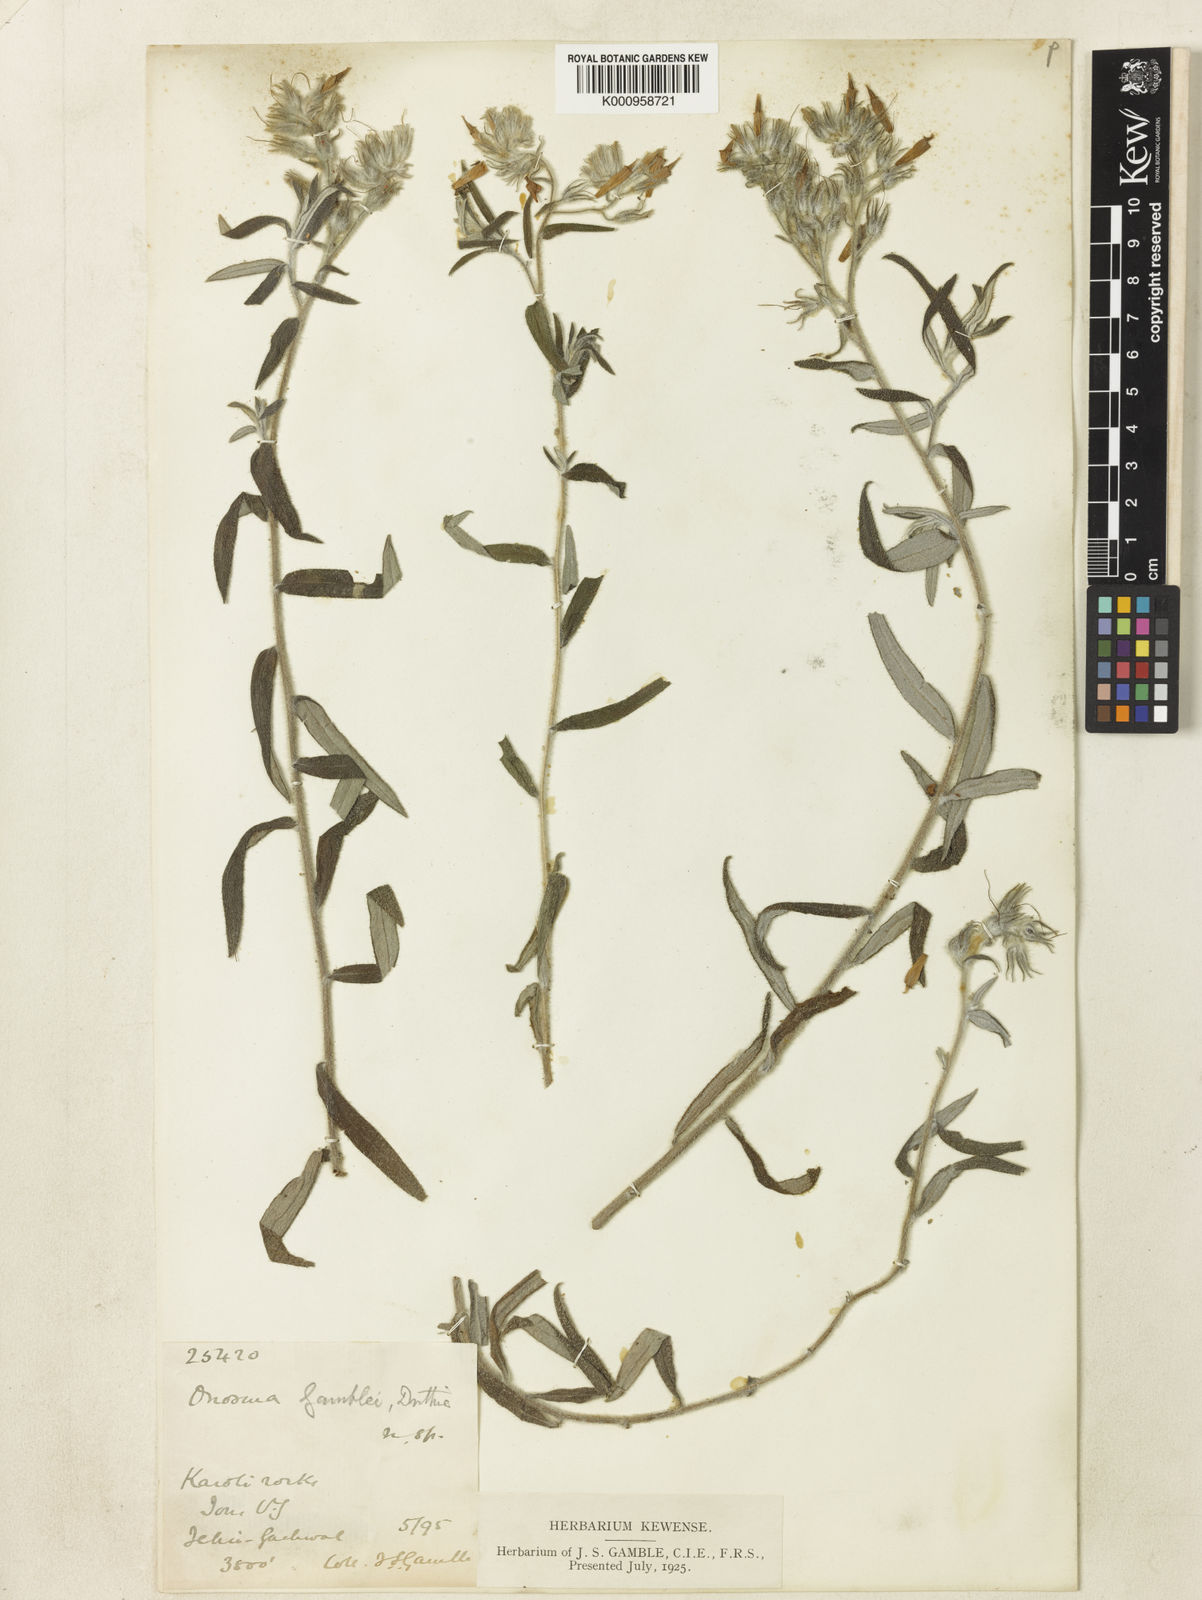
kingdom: Plantae
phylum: Tracheophyta
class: Magnoliopsida
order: Boraginales
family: Boraginaceae
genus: Maharanga
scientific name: Maharanga thomsonii
